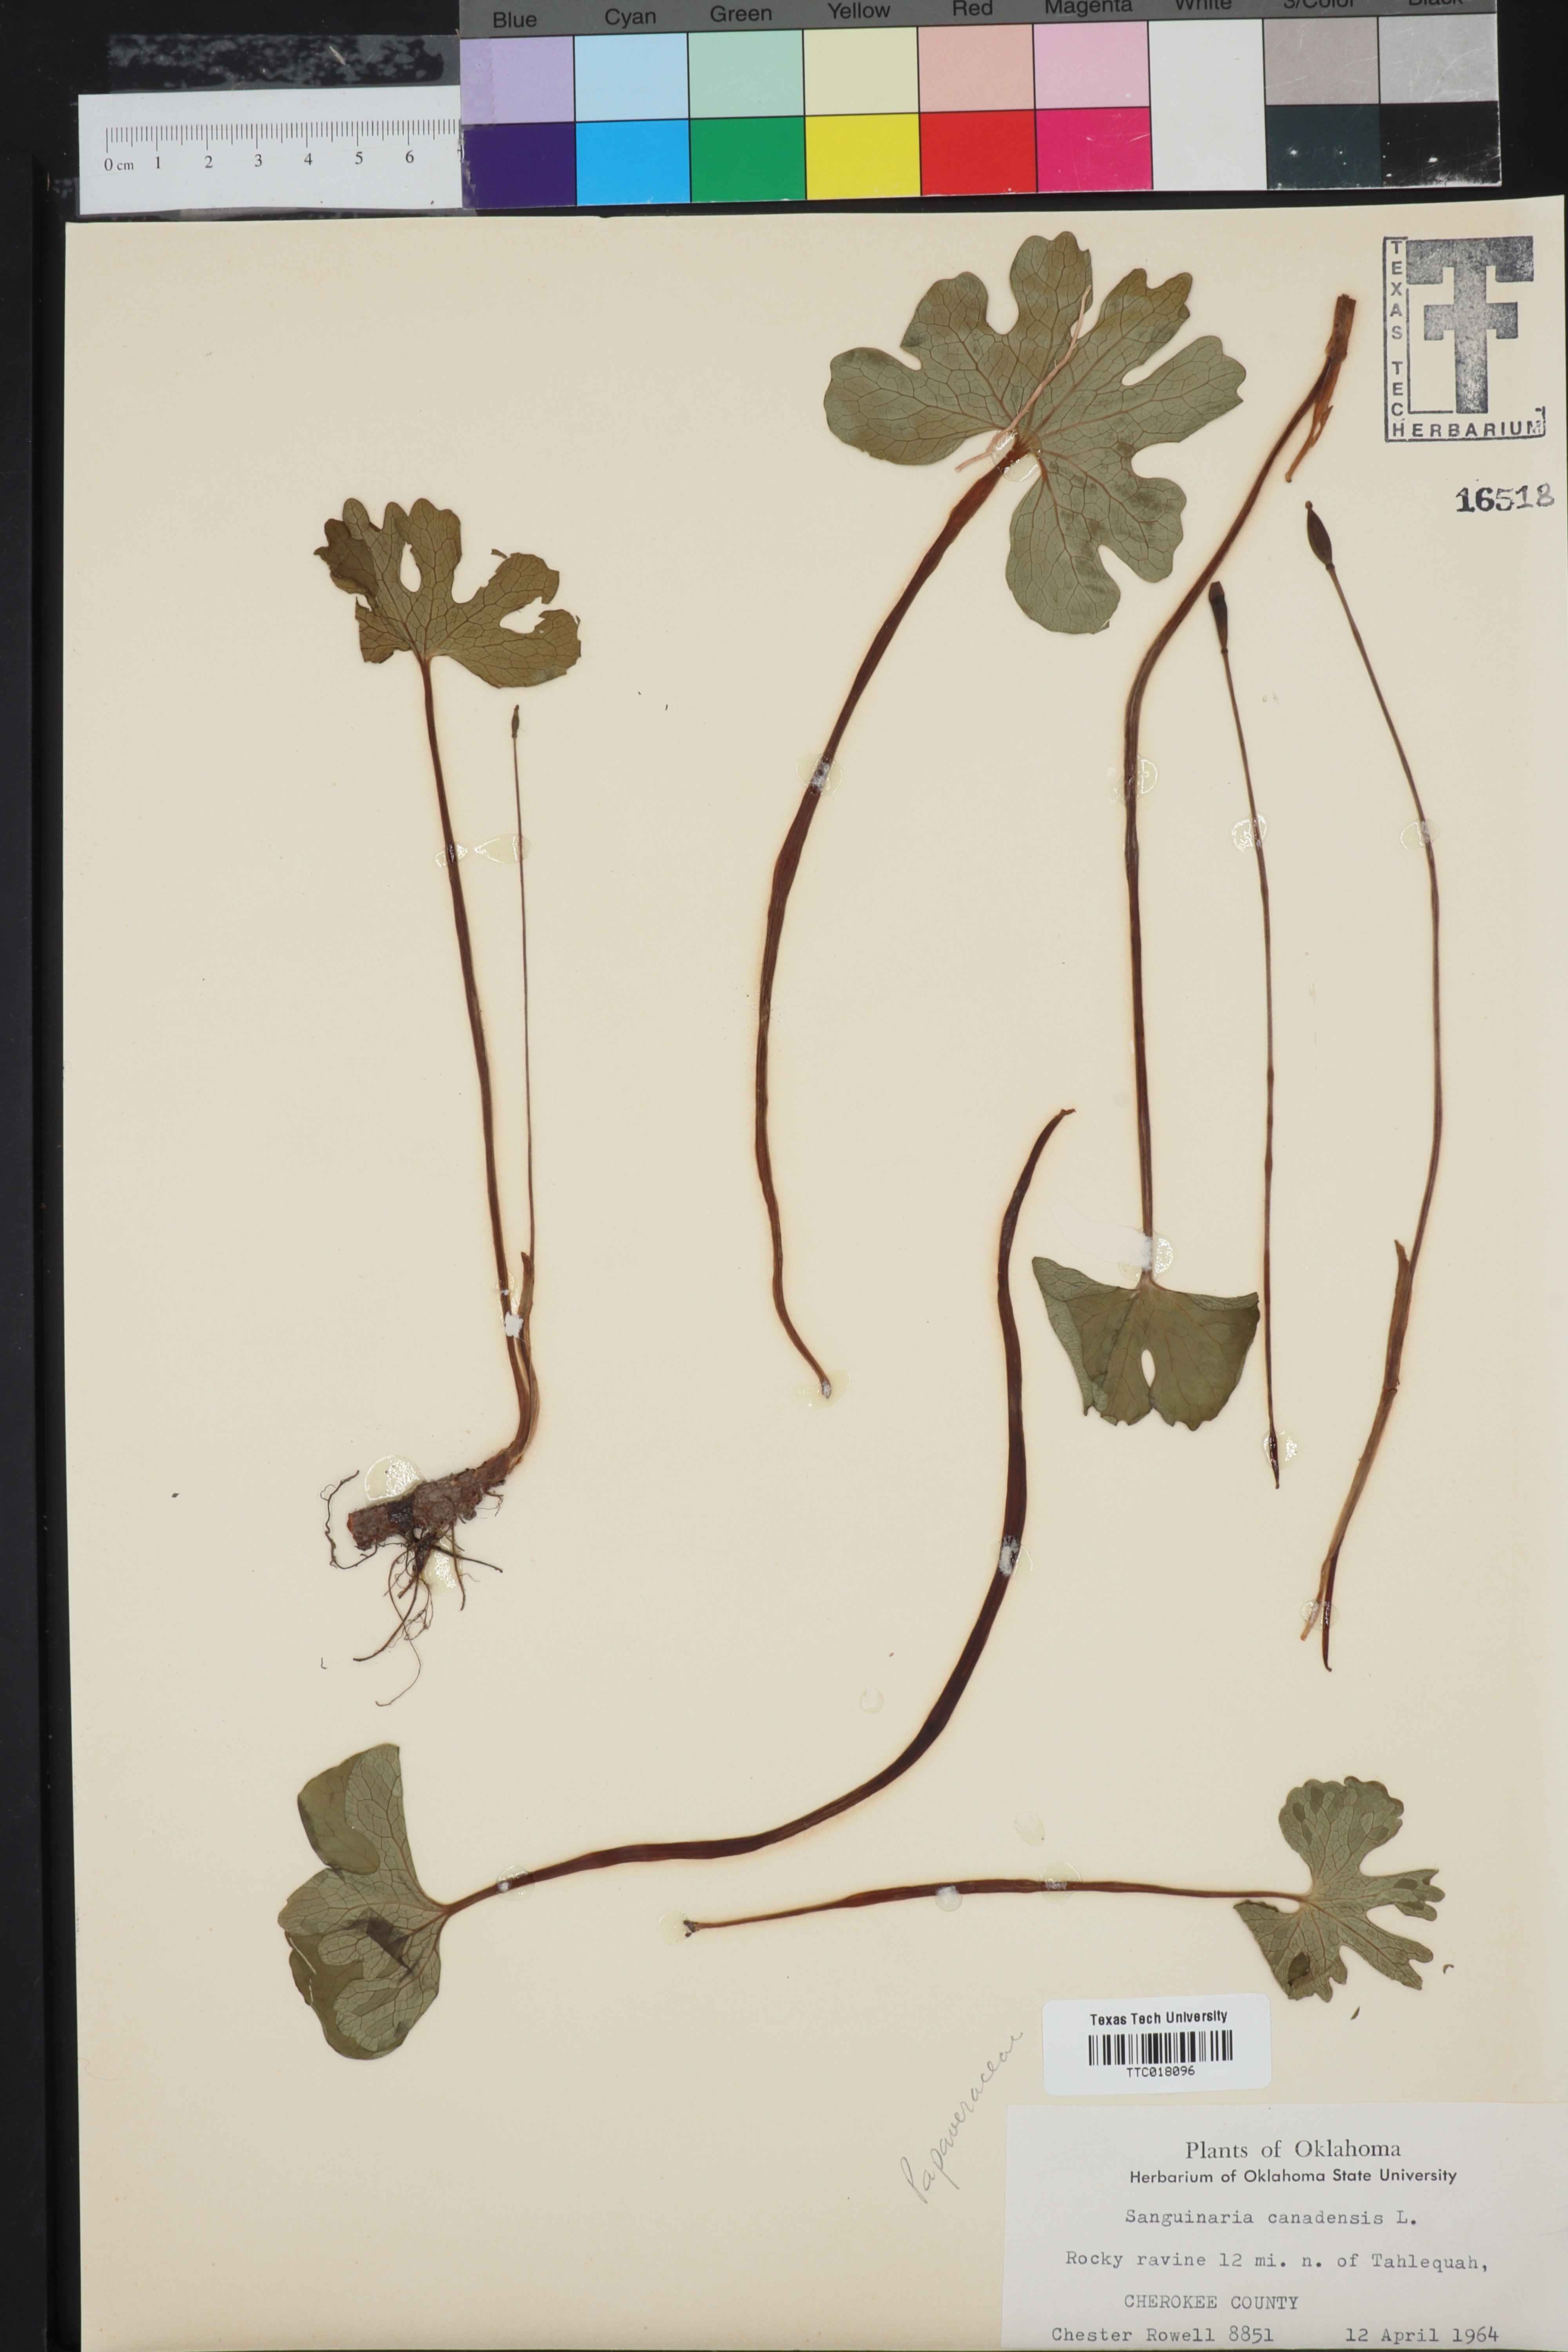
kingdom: Plantae
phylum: Tracheophyta
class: Magnoliopsida
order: Ranunculales
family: Papaveraceae
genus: Sanguinaria
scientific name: Sanguinaria canadensis
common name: Bloodroot
